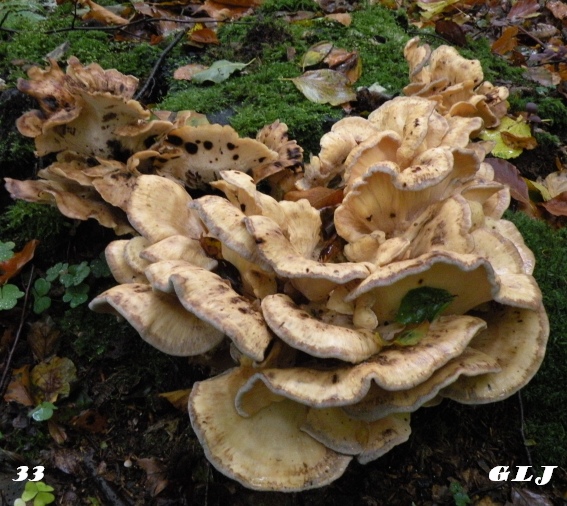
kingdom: Fungi
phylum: Basidiomycota
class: Agaricomycetes
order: Polyporales
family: Meripilaceae
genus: Meripilus
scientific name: Meripilus giganteus
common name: kæmpeporesvamp
